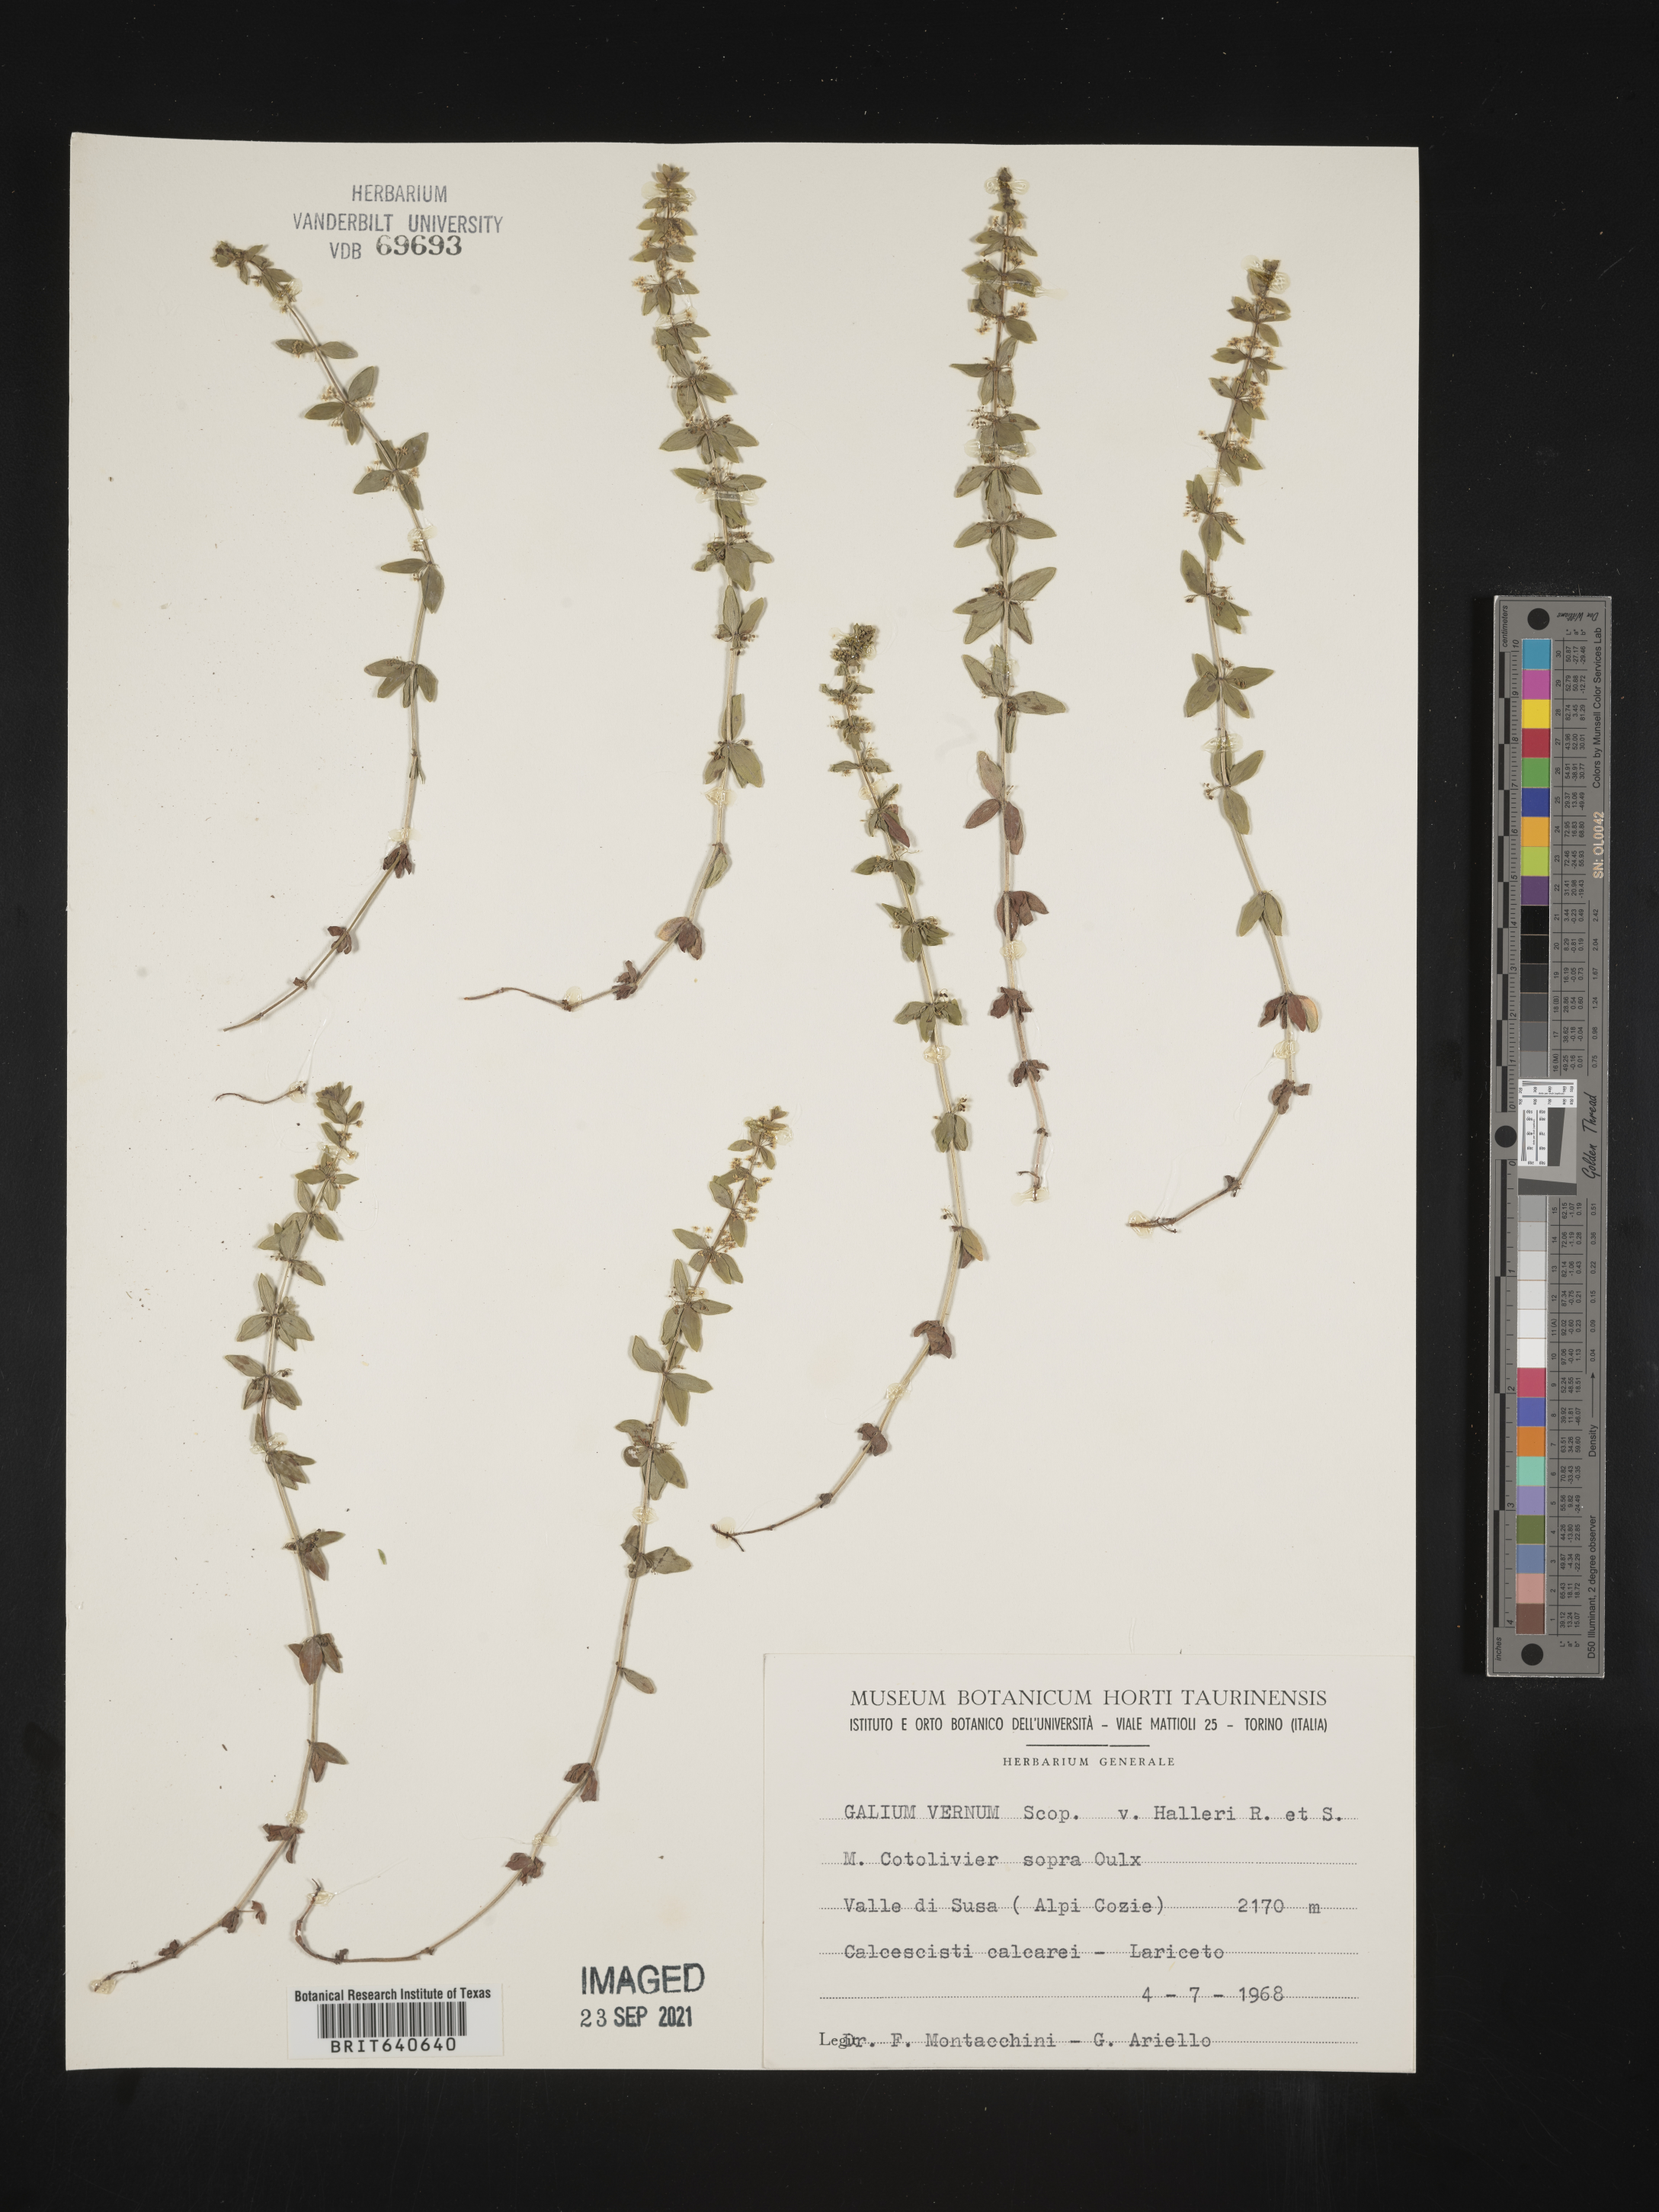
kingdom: Plantae
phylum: Tracheophyta
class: Magnoliopsida
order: Gentianales
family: Rubiaceae
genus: Galium
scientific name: Galium
